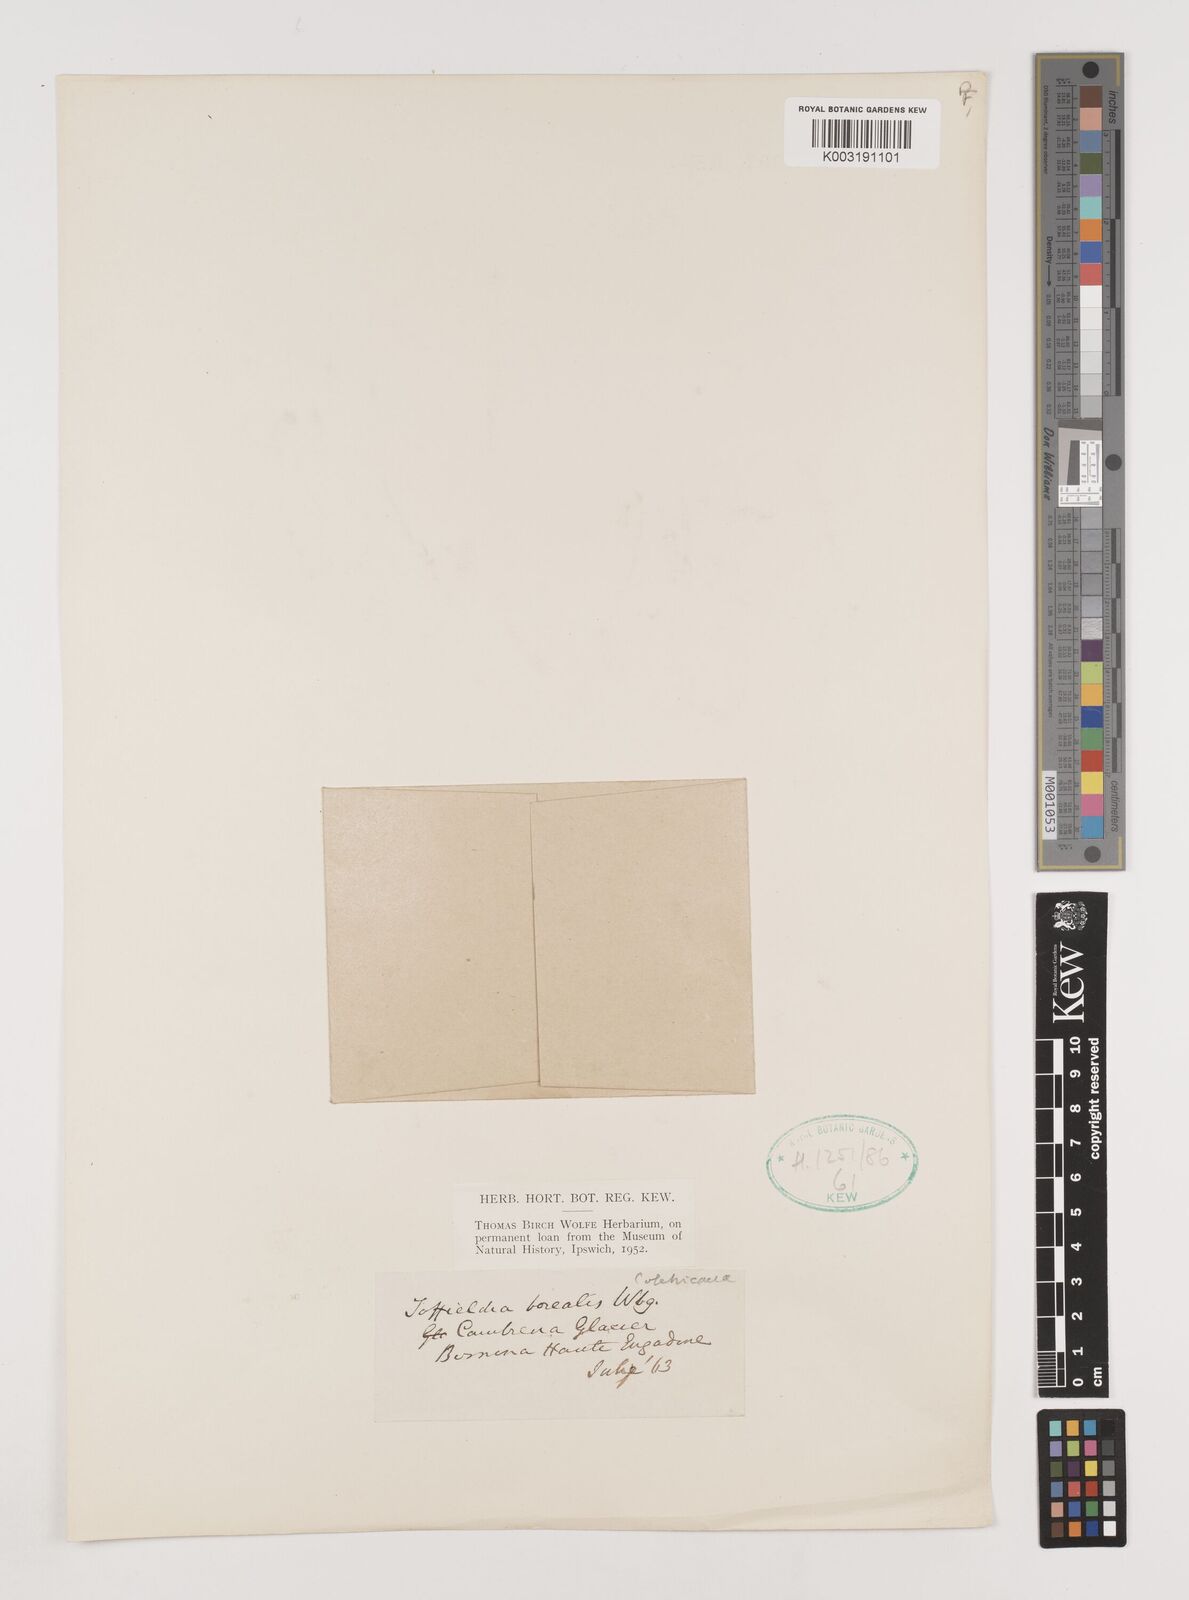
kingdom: Plantae
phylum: Tracheophyta
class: Liliopsida
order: Alismatales
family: Tofieldiaceae
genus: Tofieldia
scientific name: Tofieldia pusilla
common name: Scottish false asphodel
